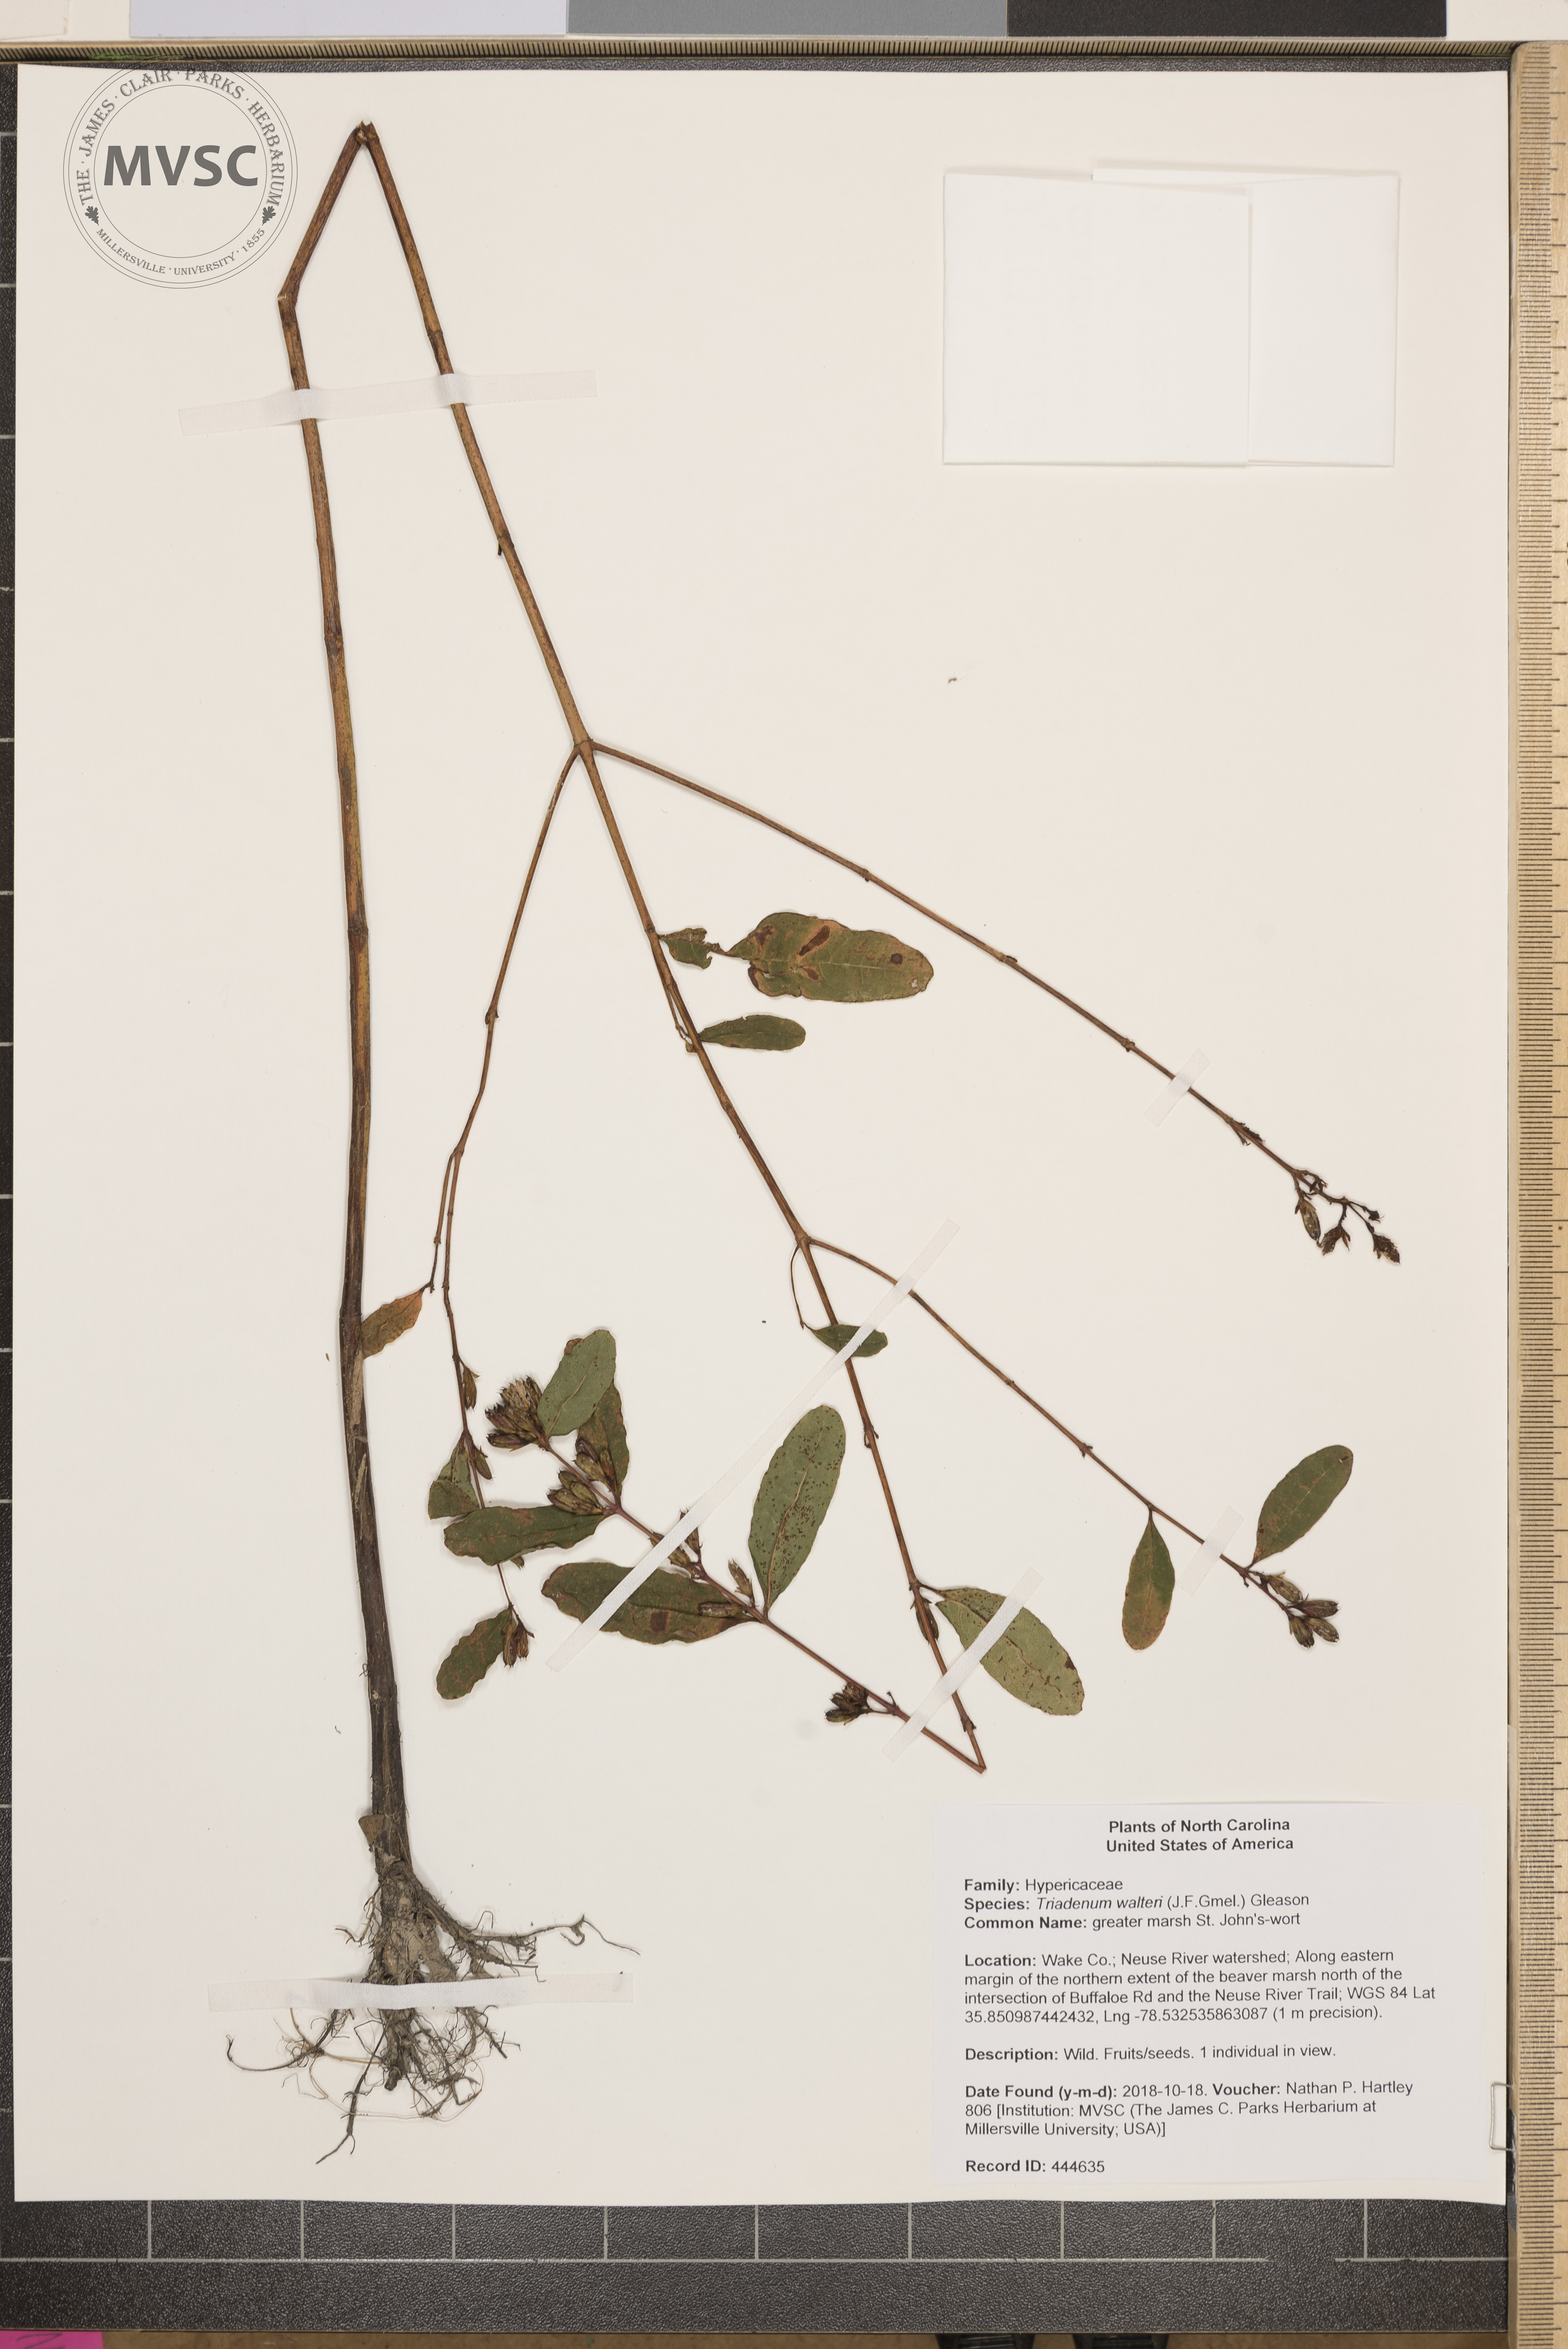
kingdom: Plantae
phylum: Tracheophyta
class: Magnoliopsida
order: Malpighiales
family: Hypericaceae
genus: Triadenum
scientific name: Triadenum walteri
